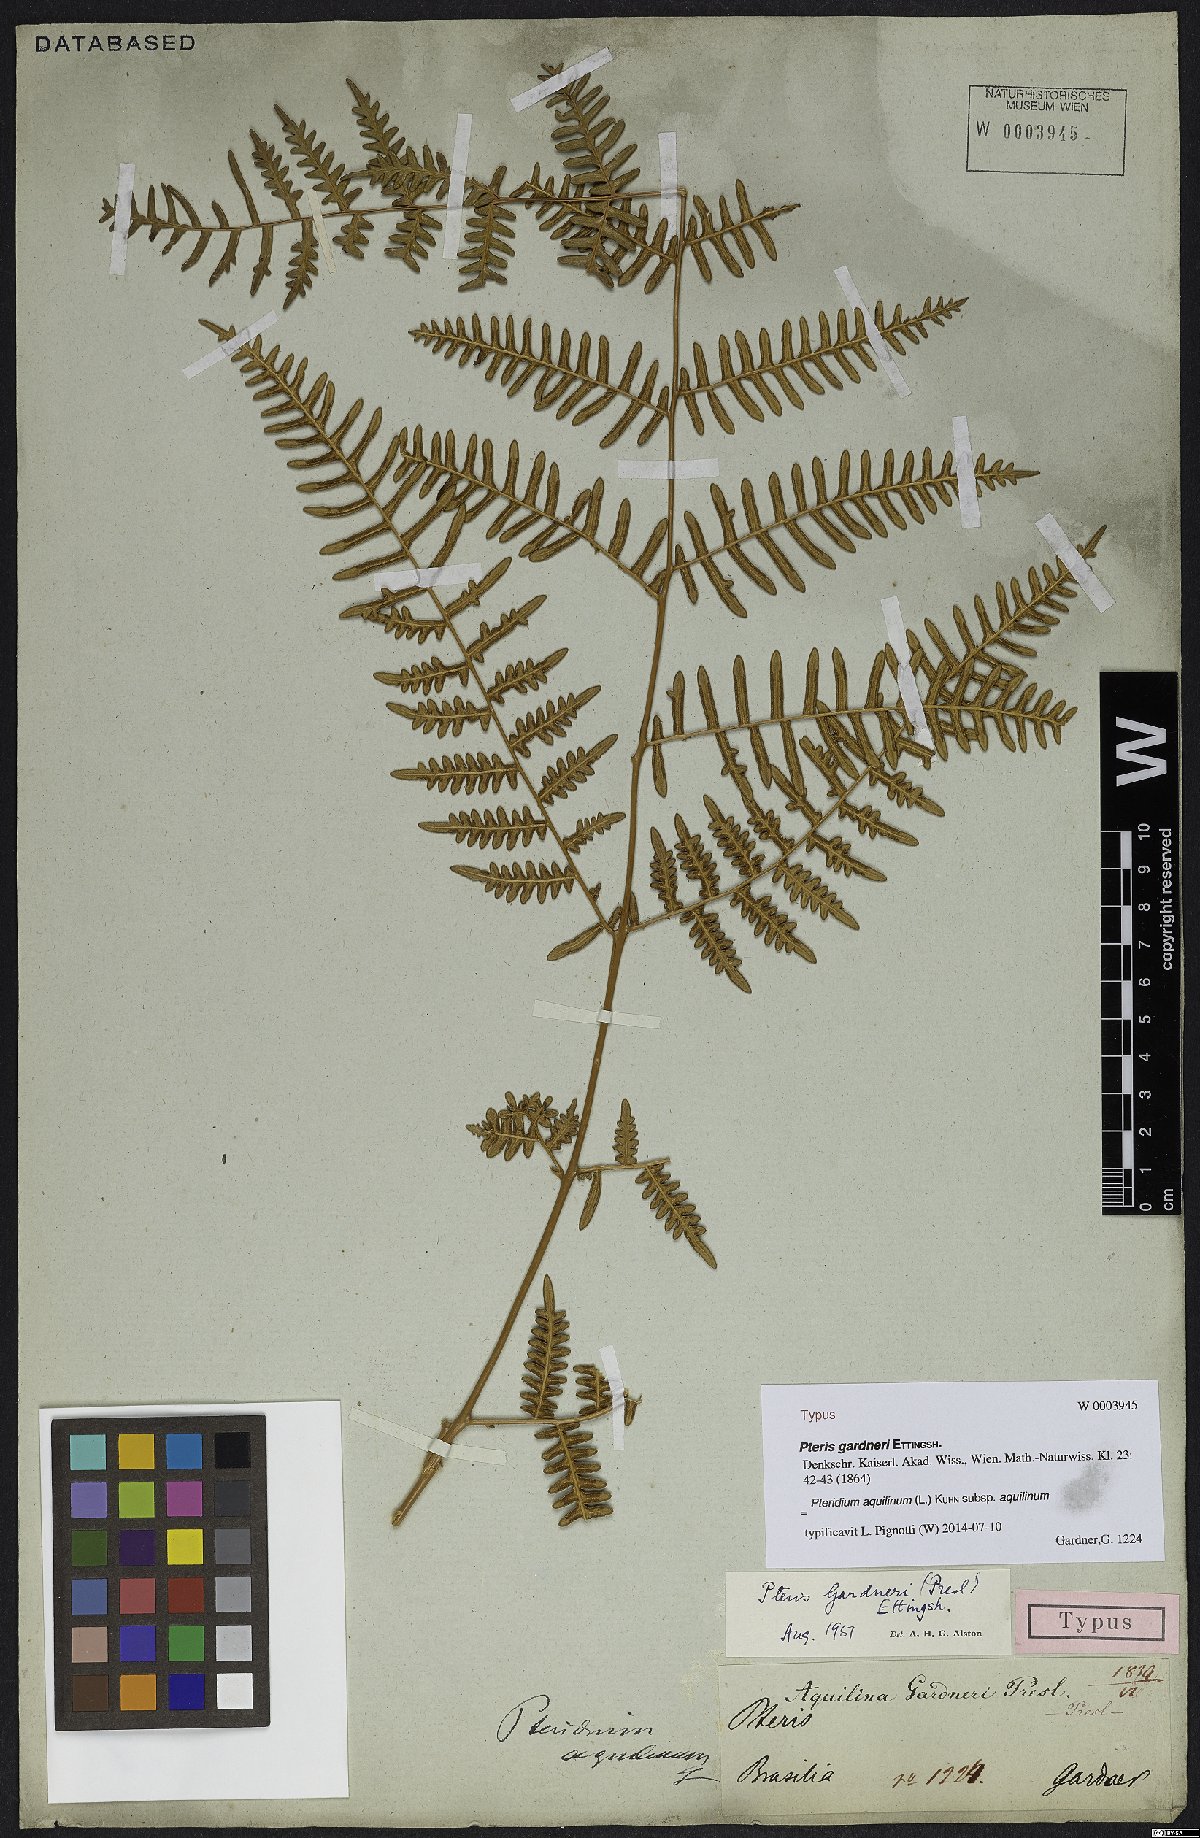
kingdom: Plantae
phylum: Tracheophyta
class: Polypodiopsida
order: Polypodiales
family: Dennstaedtiaceae
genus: Pteridium
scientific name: Pteridium aquilinum
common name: Bracken
